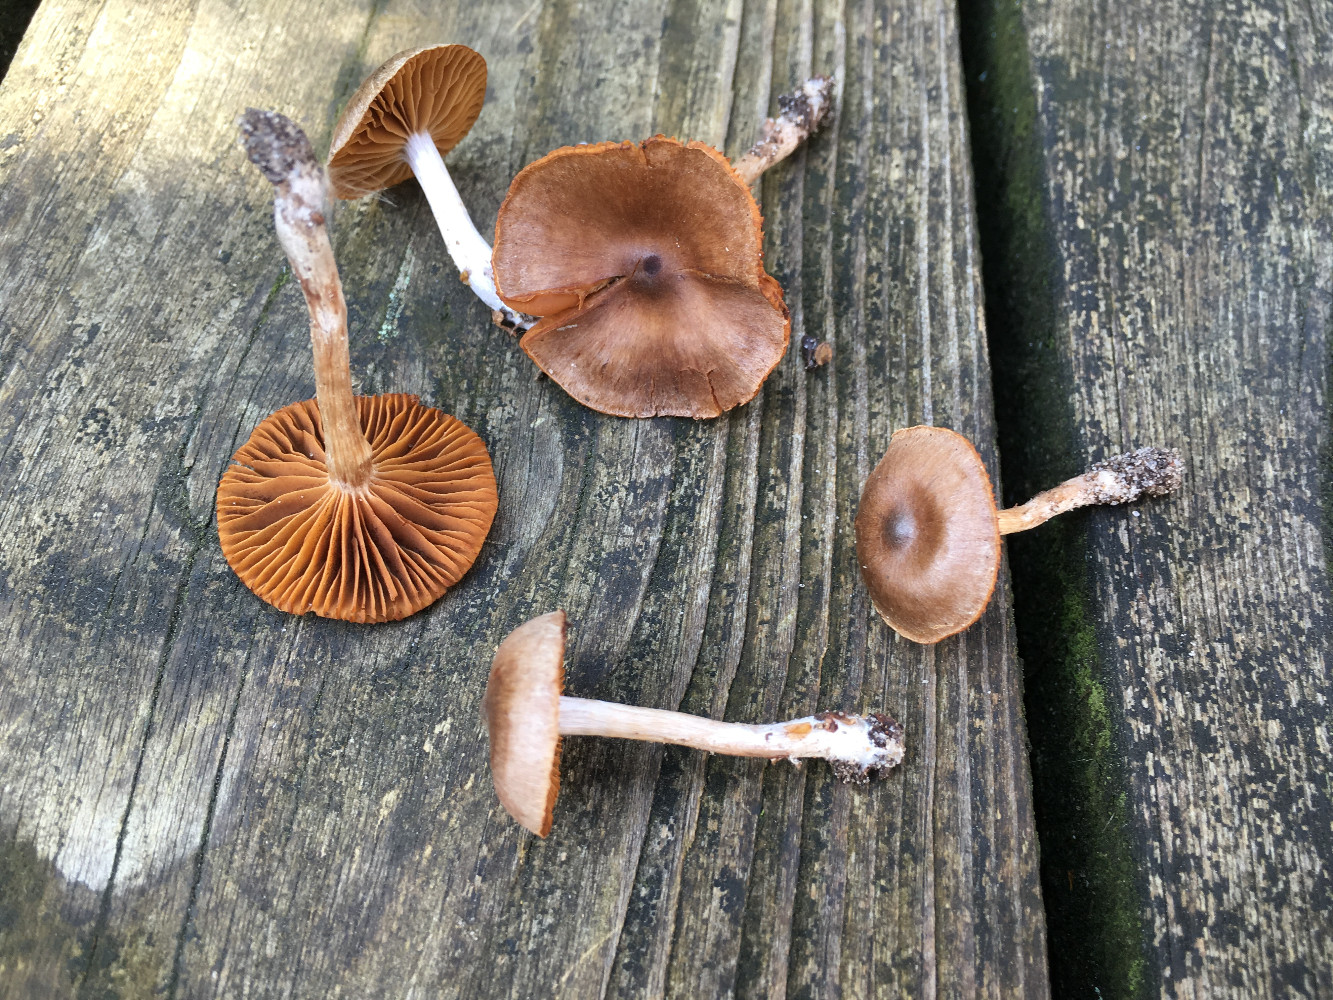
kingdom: Fungi
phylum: Basidiomycota
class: Agaricomycetes
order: Agaricales
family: Cortinariaceae
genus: Cortinarius
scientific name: Cortinarius
